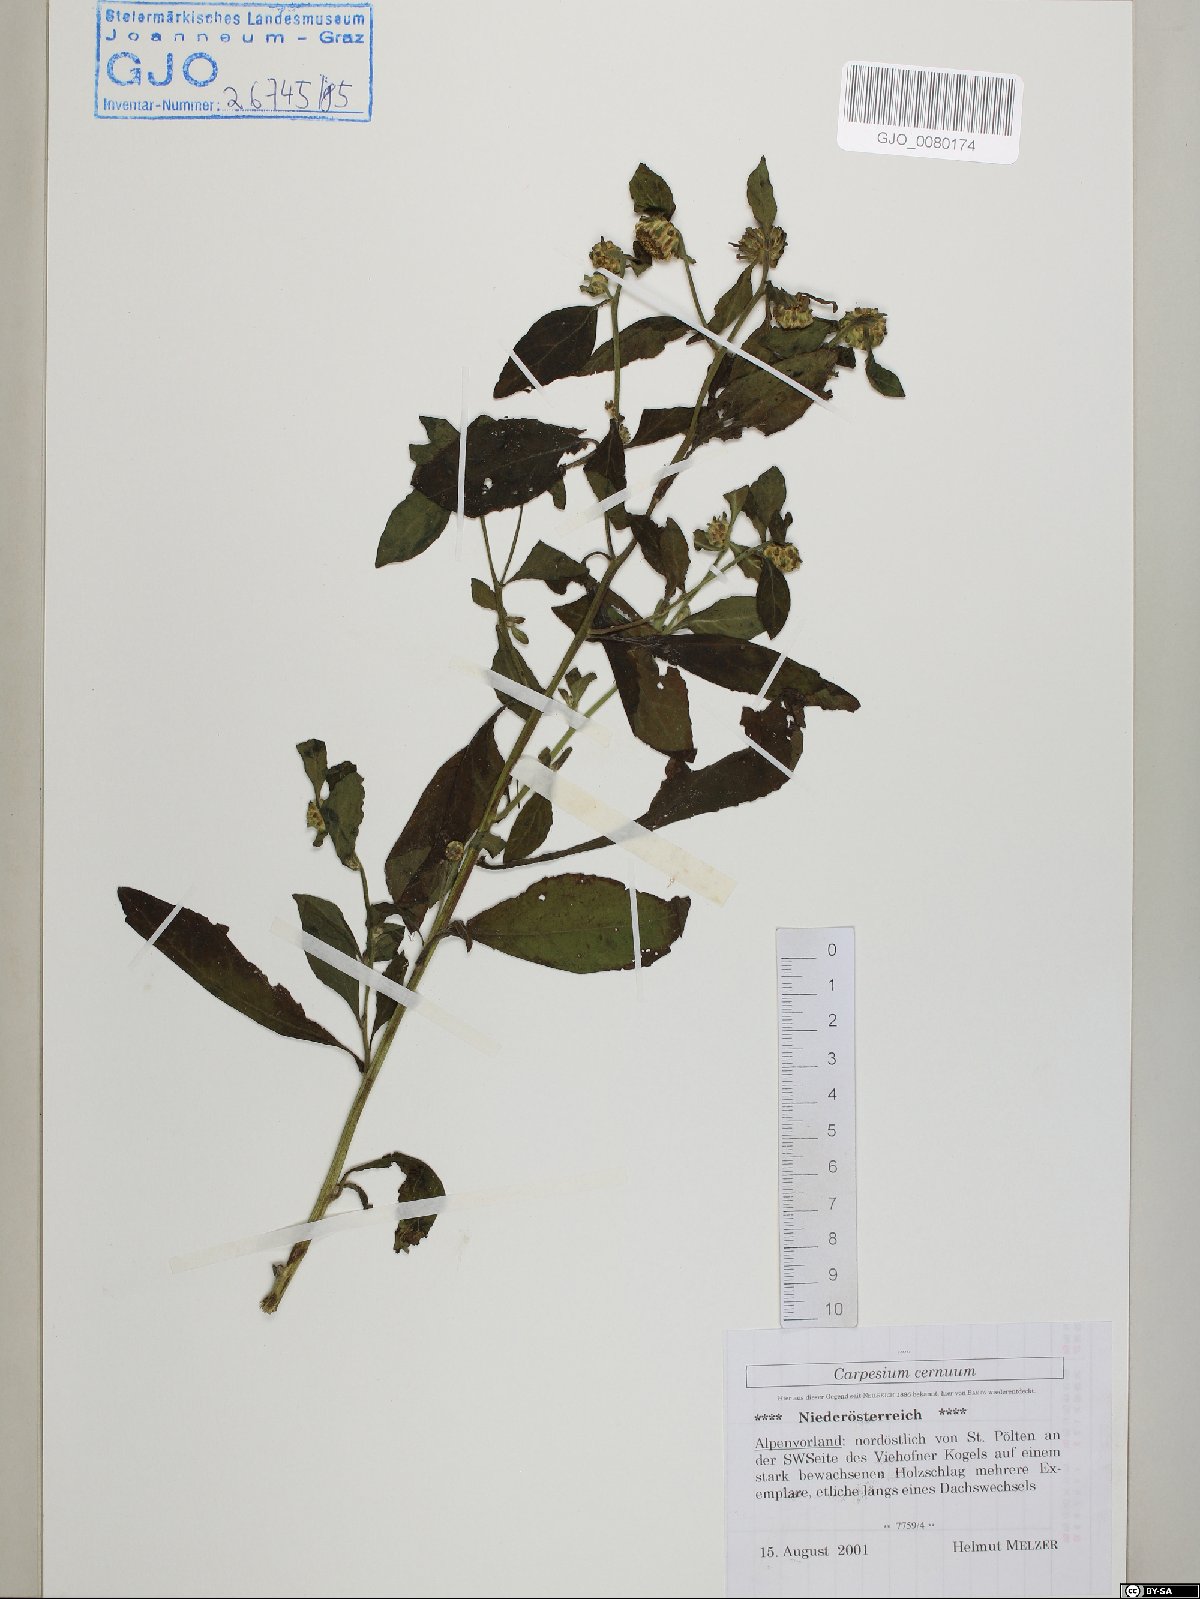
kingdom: Plantae
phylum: Tracheophyta
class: Magnoliopsida
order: Asterales
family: Asteraceae
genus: Carpesium
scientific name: Carpesium cernuum
